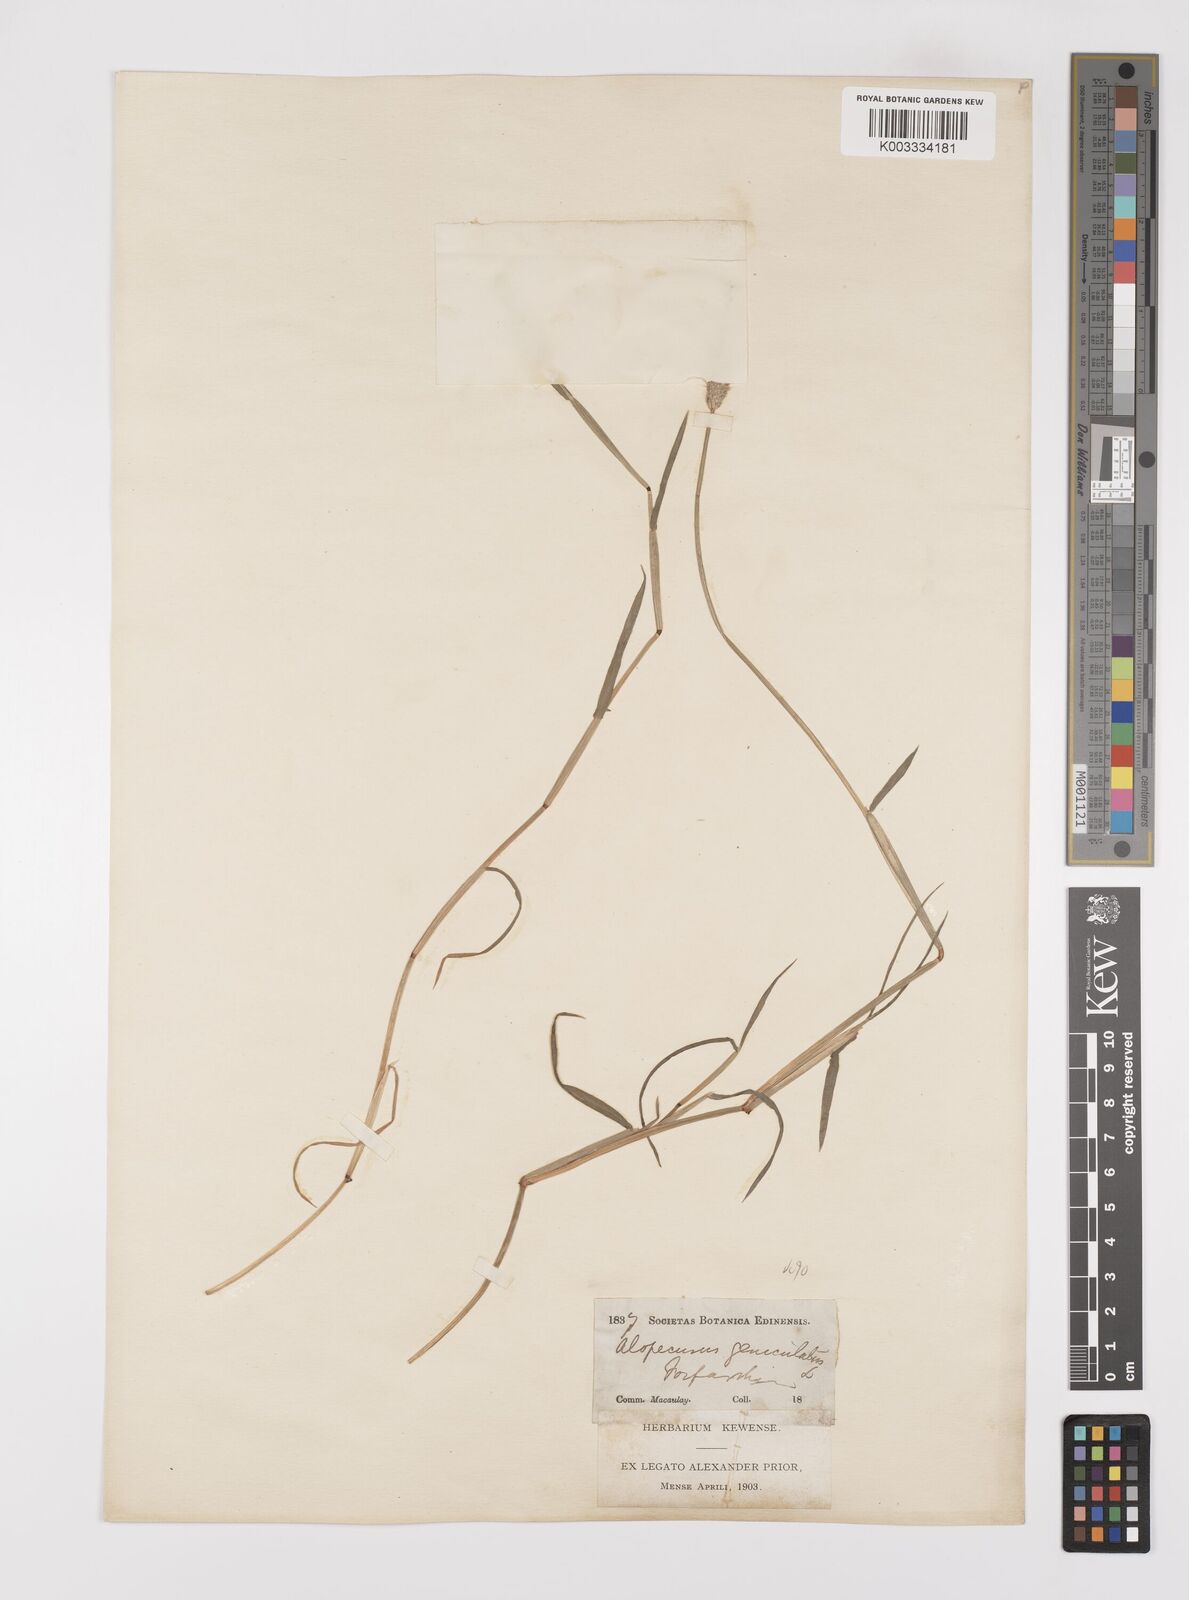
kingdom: Plantae
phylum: Tracheophyta
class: Liliopsida
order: Poales
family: Poaceae
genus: Alopecurus
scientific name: Alopecurus geniculatus
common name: Water foxtail
